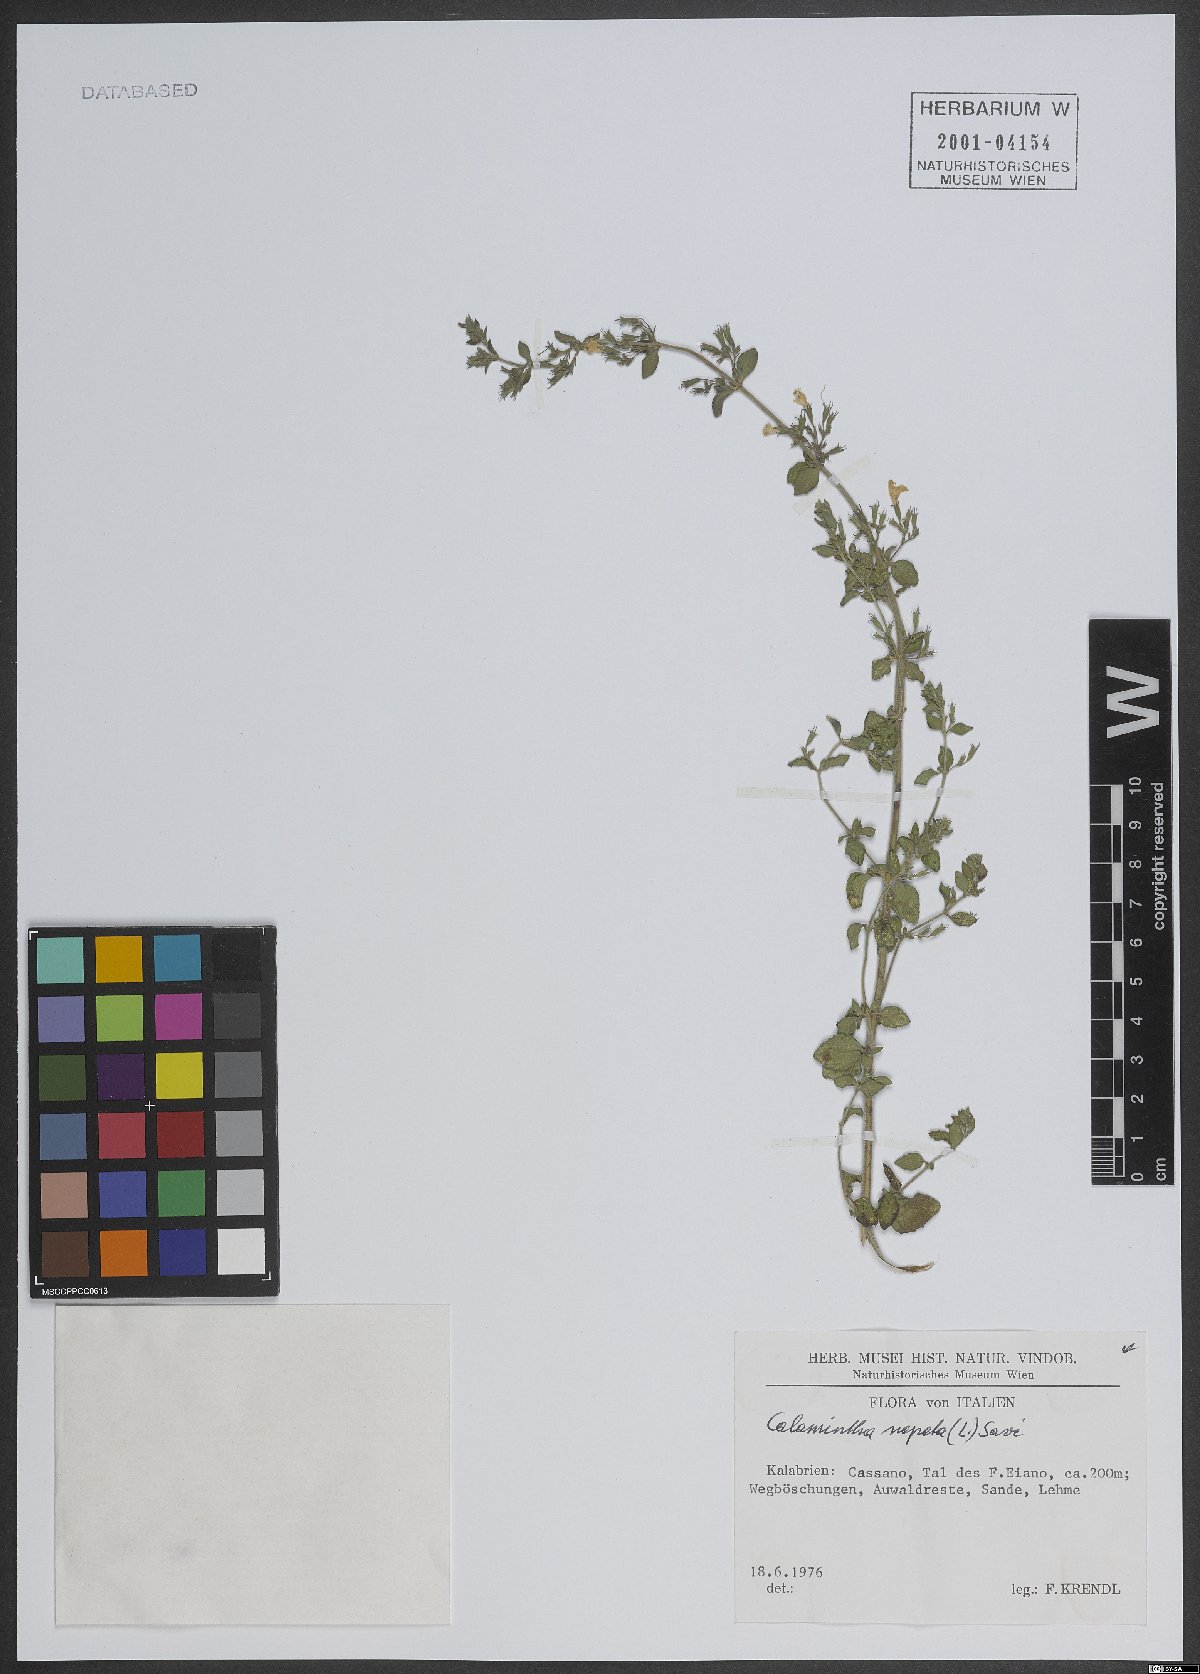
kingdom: Plantae
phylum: Tracheophyta
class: Magnoliopsida
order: Lamiales
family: Lamiaceae
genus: Clinopodium
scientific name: Clinopodium nepeta
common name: Lesser calamint
